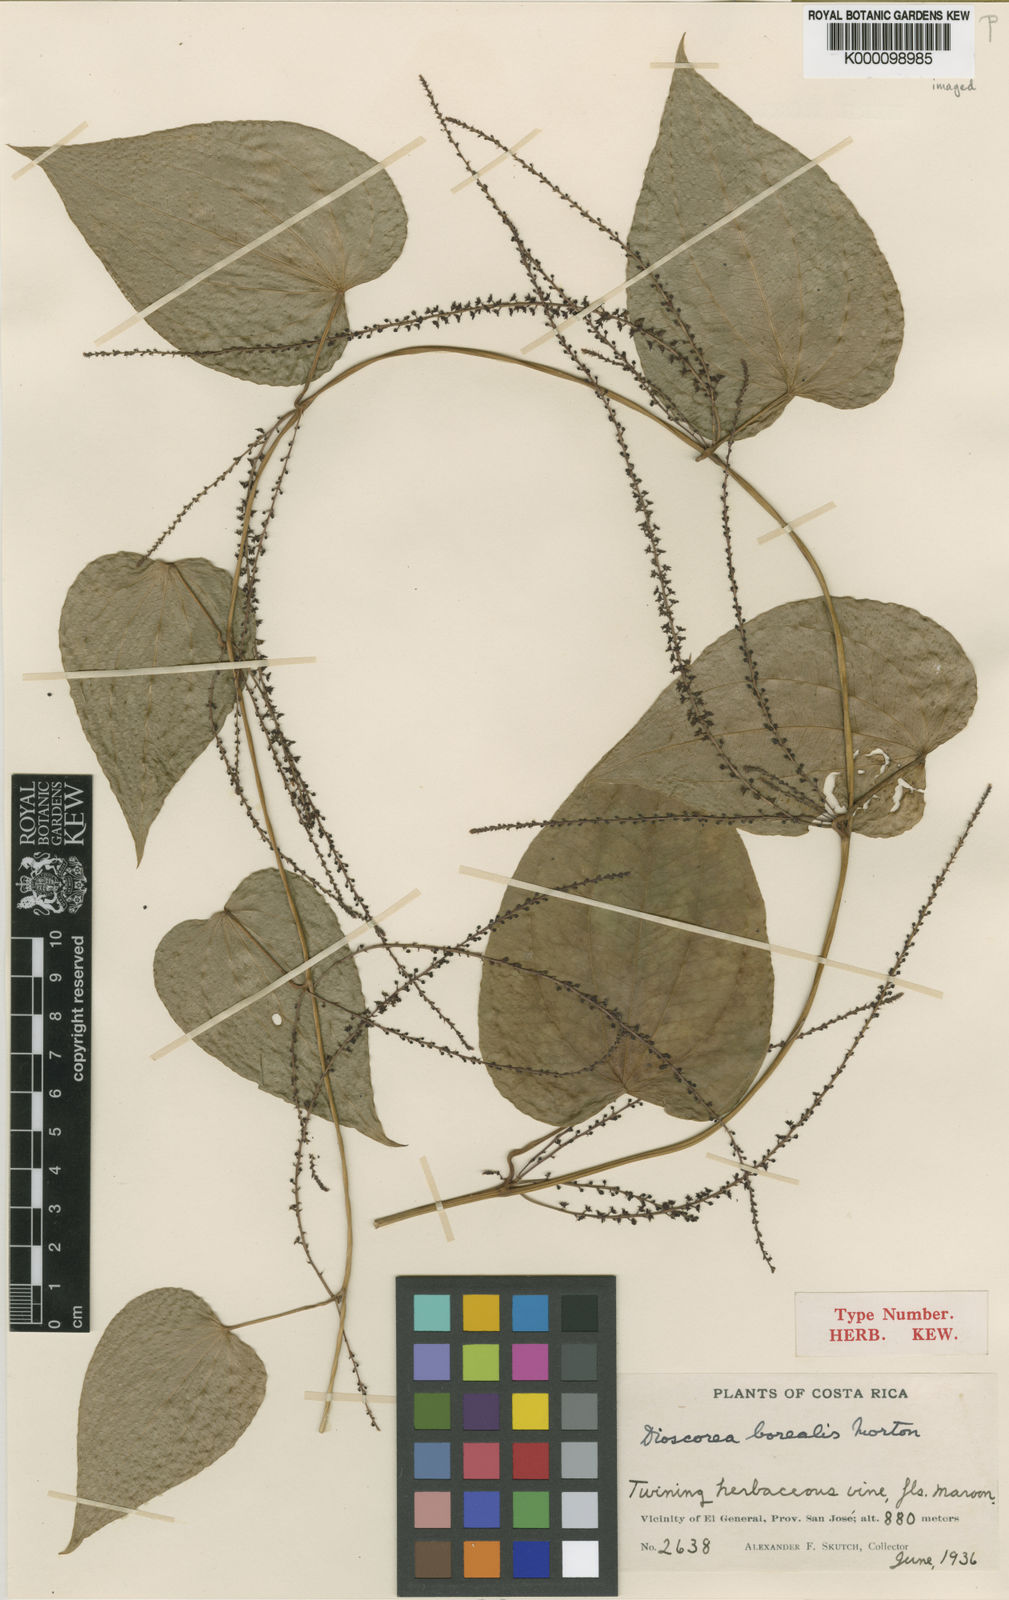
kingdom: Plantae
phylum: Tracheophyta
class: Liliopsida
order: Dioscoreales
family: Dioscoreaceae
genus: Dioscorea
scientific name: Dioscorea
